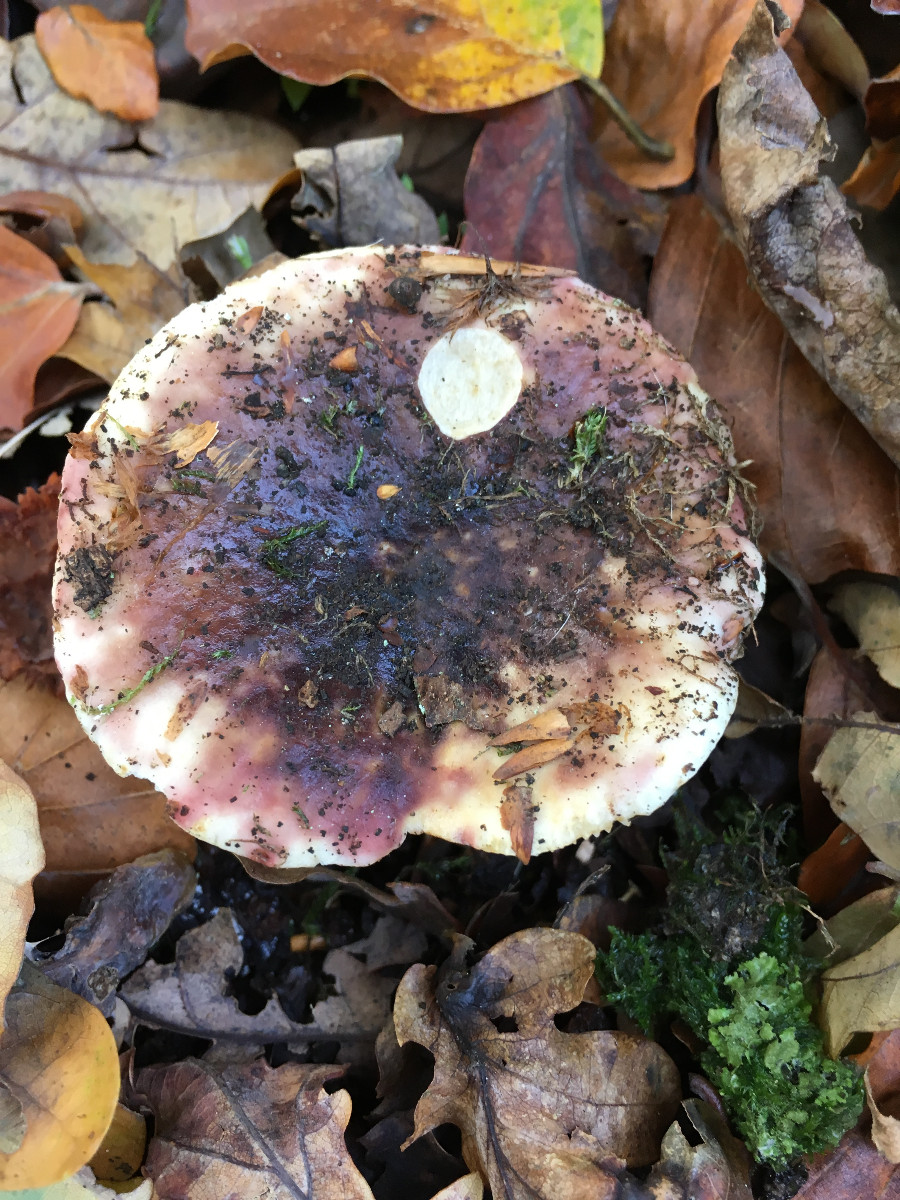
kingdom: Fungi
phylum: Basidiomycota
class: Agaricomycetes
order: Russulales
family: Russulaceae
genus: Russula
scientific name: Russula atropurpurea
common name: purpurbroget skørhat
